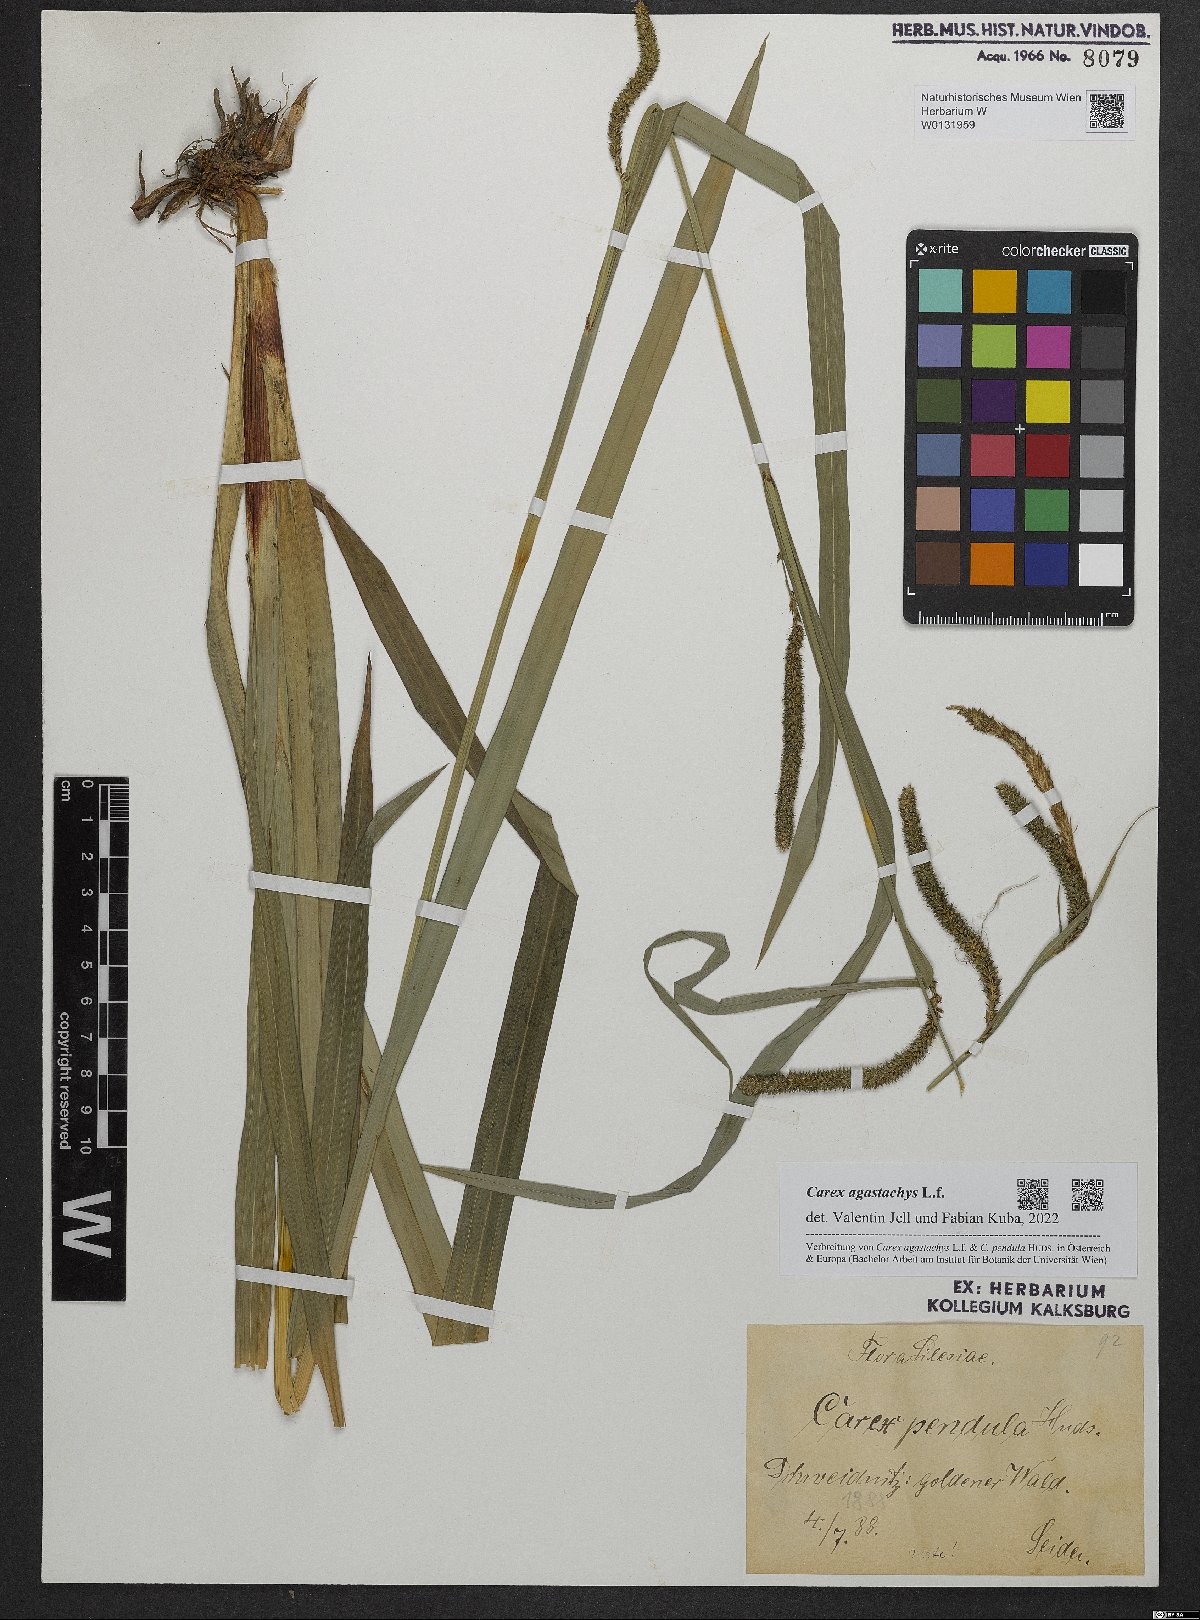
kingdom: Plantae
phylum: Tracheophyta
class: Liliopsida
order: Poales
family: Cyperaceae
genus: Carex
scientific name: Carex agastachys
